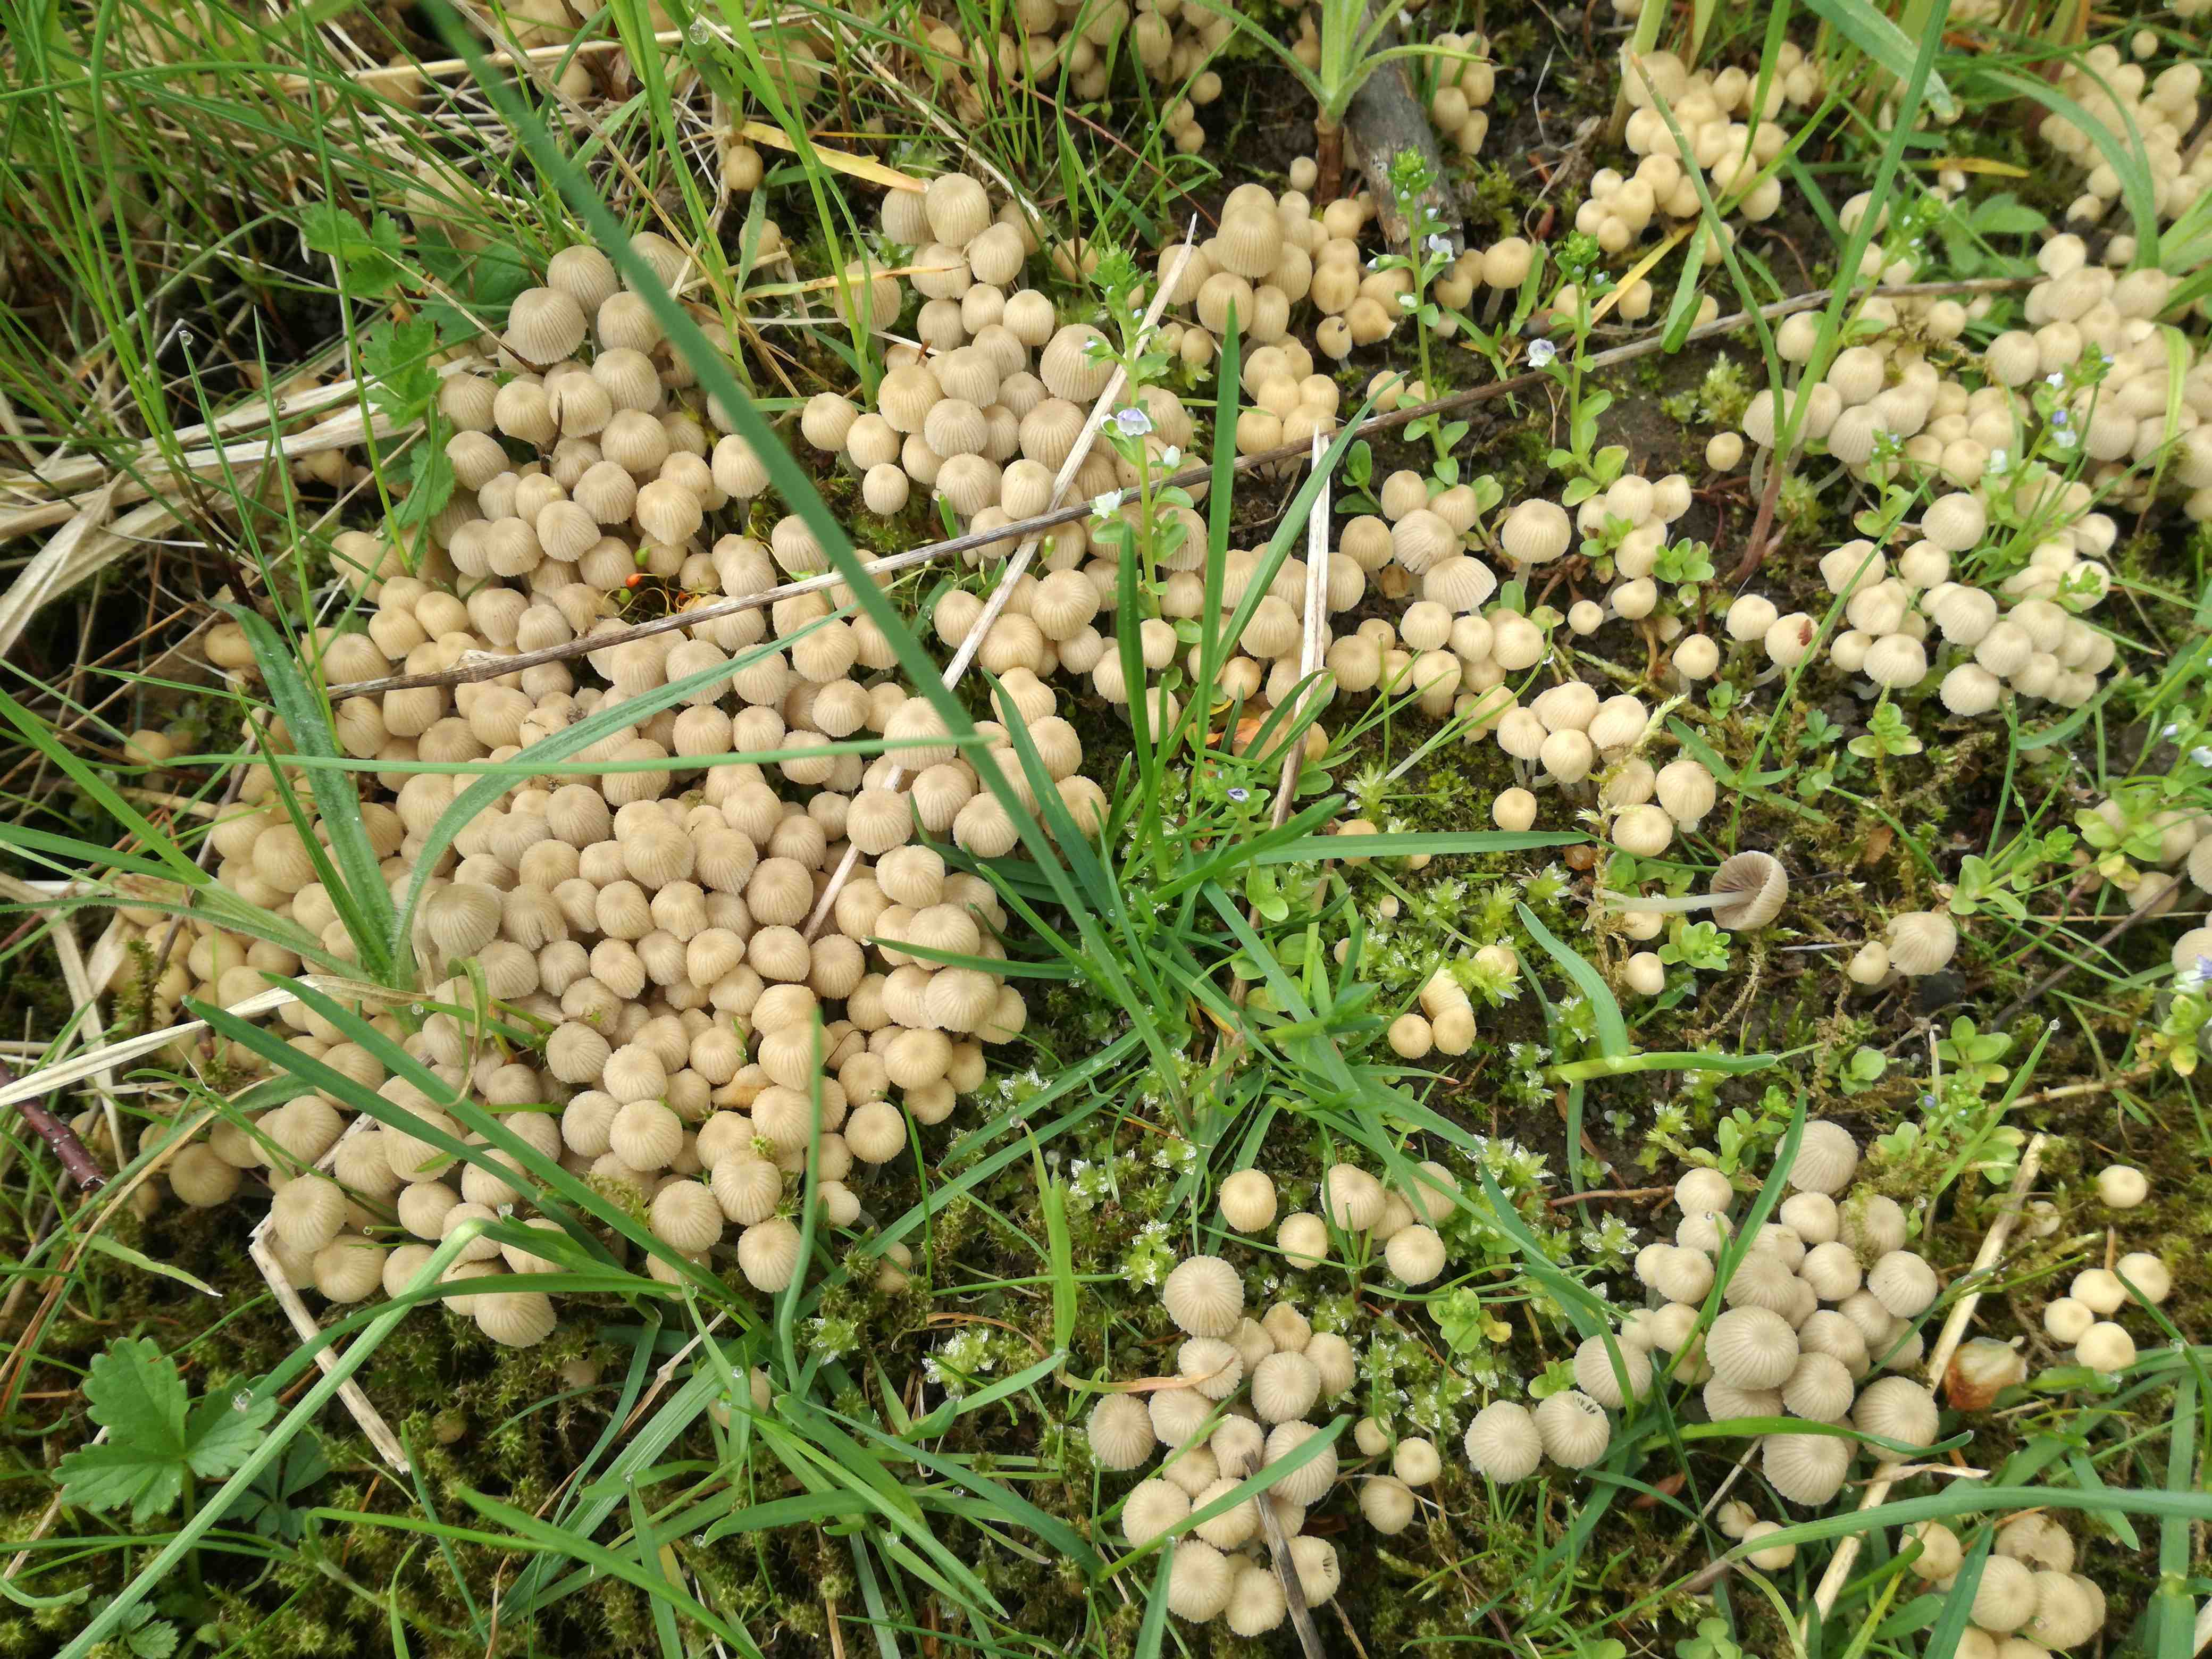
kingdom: Fungi
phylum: Basidiomycota
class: Agaricomycetes
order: Agaricales
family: Psathyrellaceae
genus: Coprinellus
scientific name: Coprinellus disseminatus
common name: bredsået blækhat
